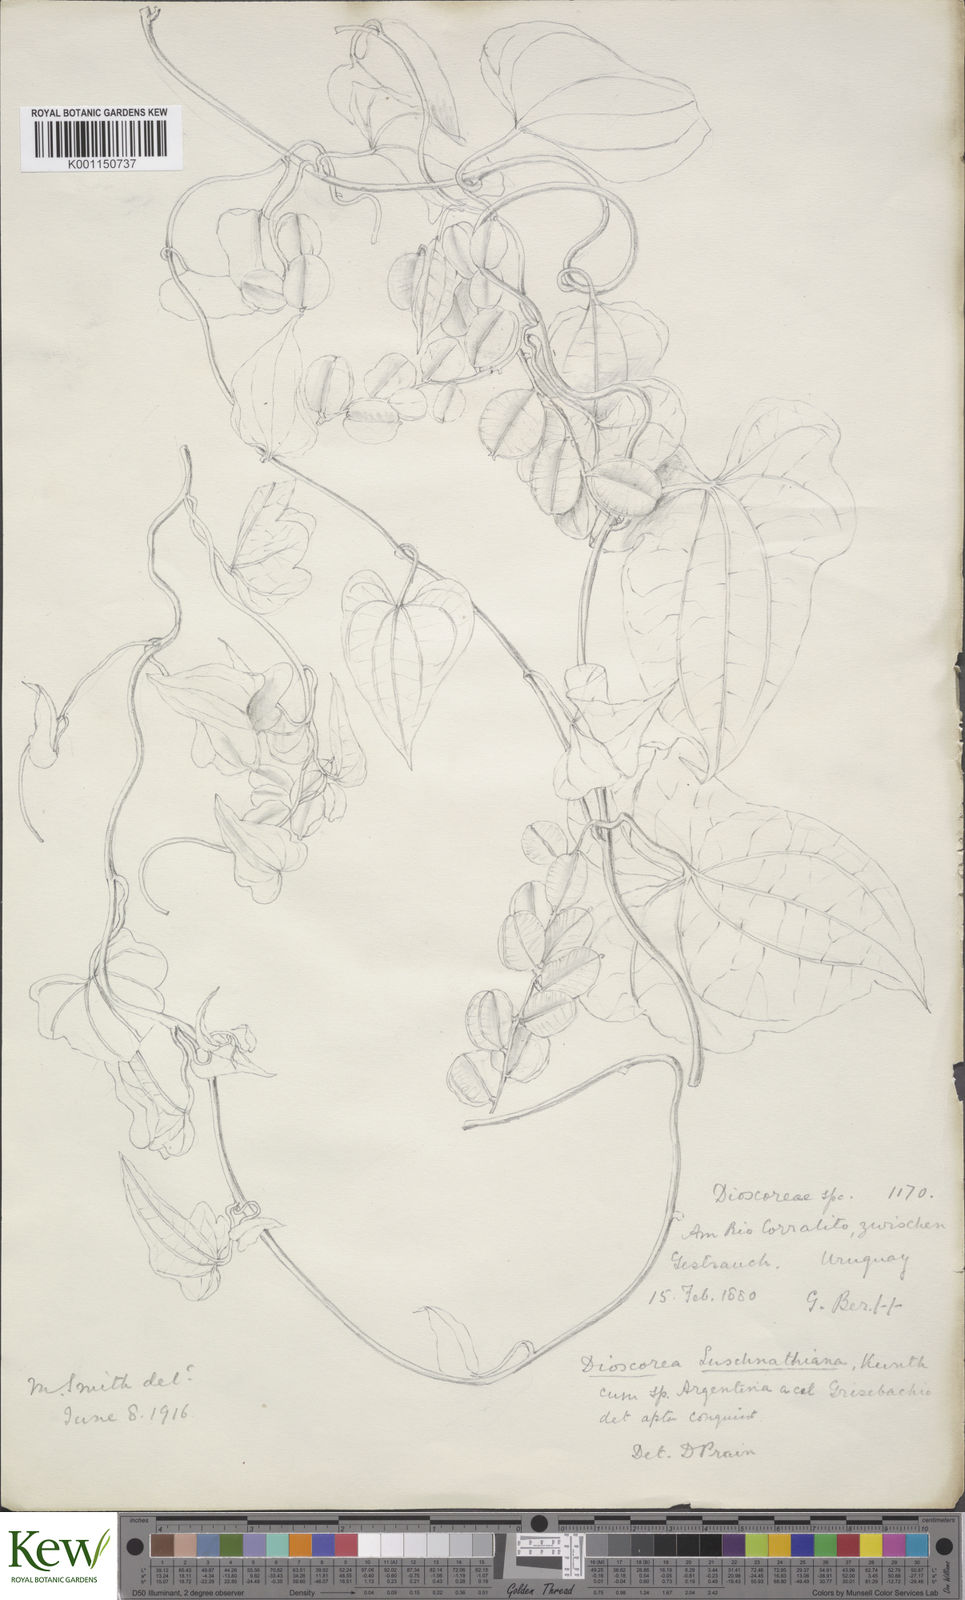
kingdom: Plantae
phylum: Tracheophyta
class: Liliopsida
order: Dioscoreales
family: Dioscoreaceae
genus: Dioscorea
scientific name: Dioscorea pohlii
